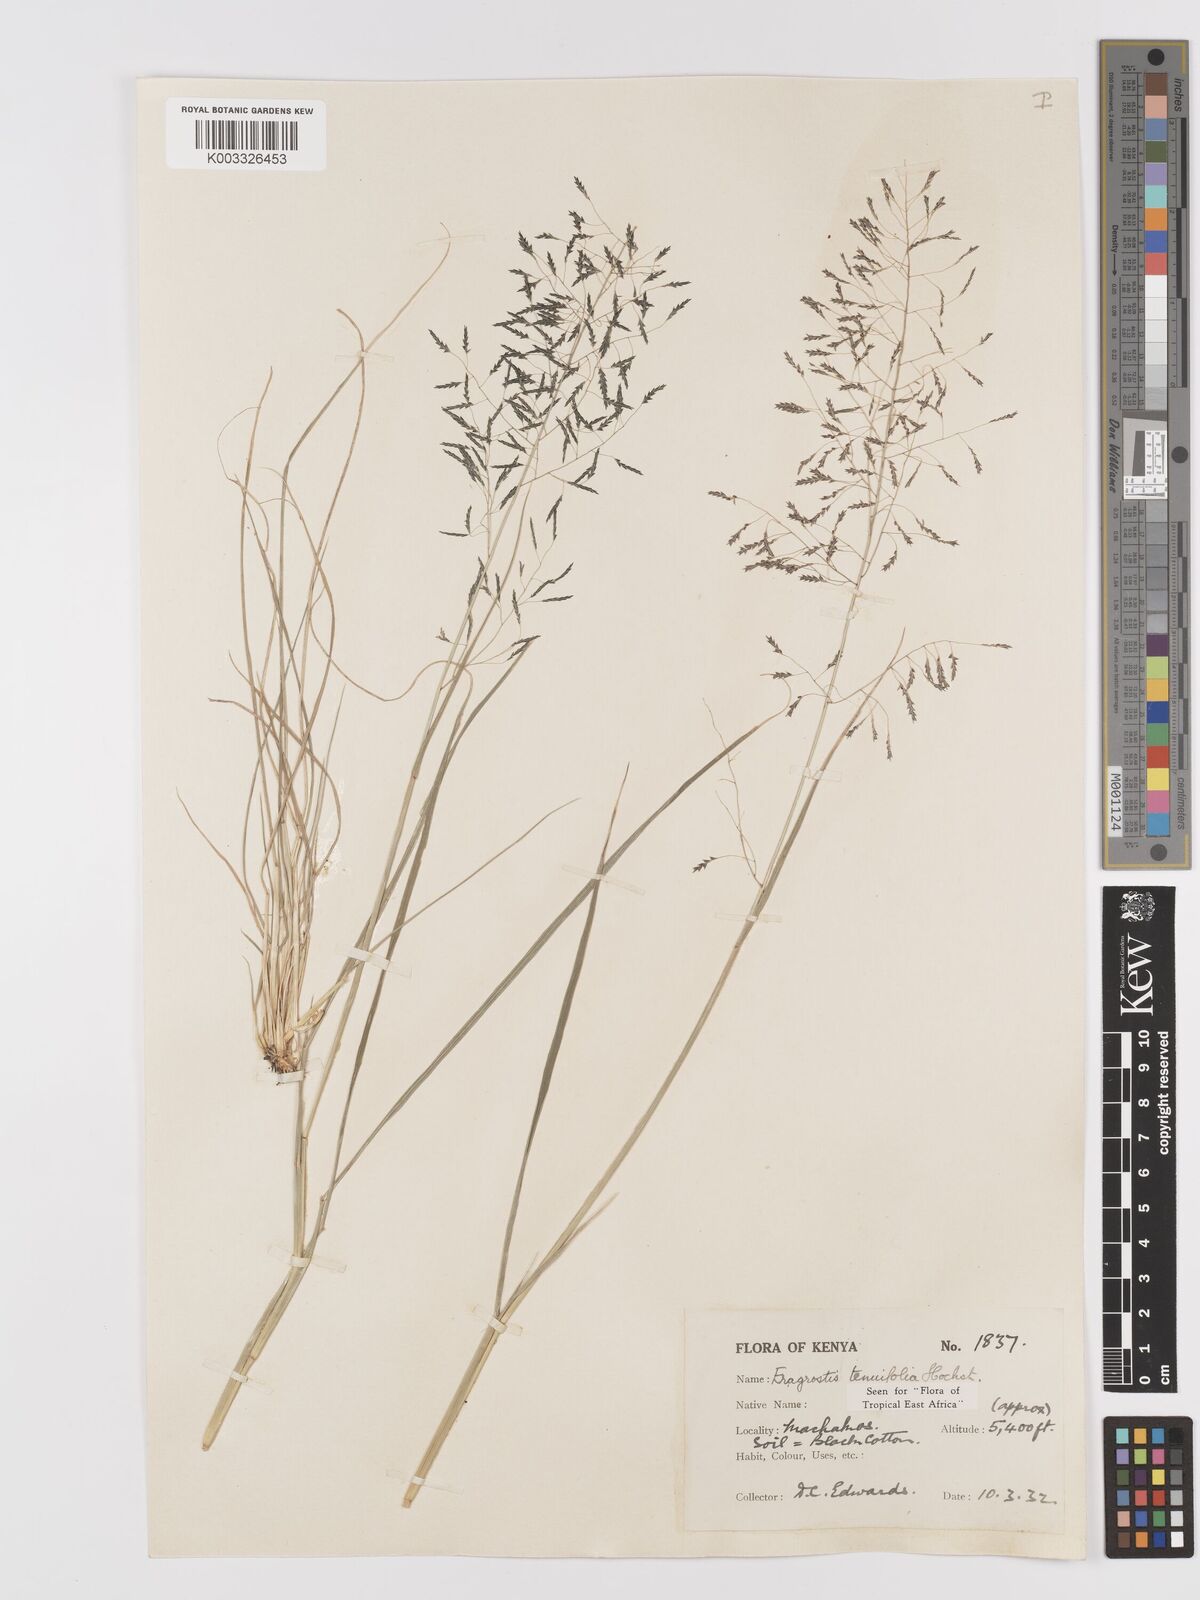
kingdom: Plantae
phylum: Tracheophyta
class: Liliopsida
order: Poales
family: Poaceae
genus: Eragrostis
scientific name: Eragrostis tenuifolia
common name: Elastic grass
